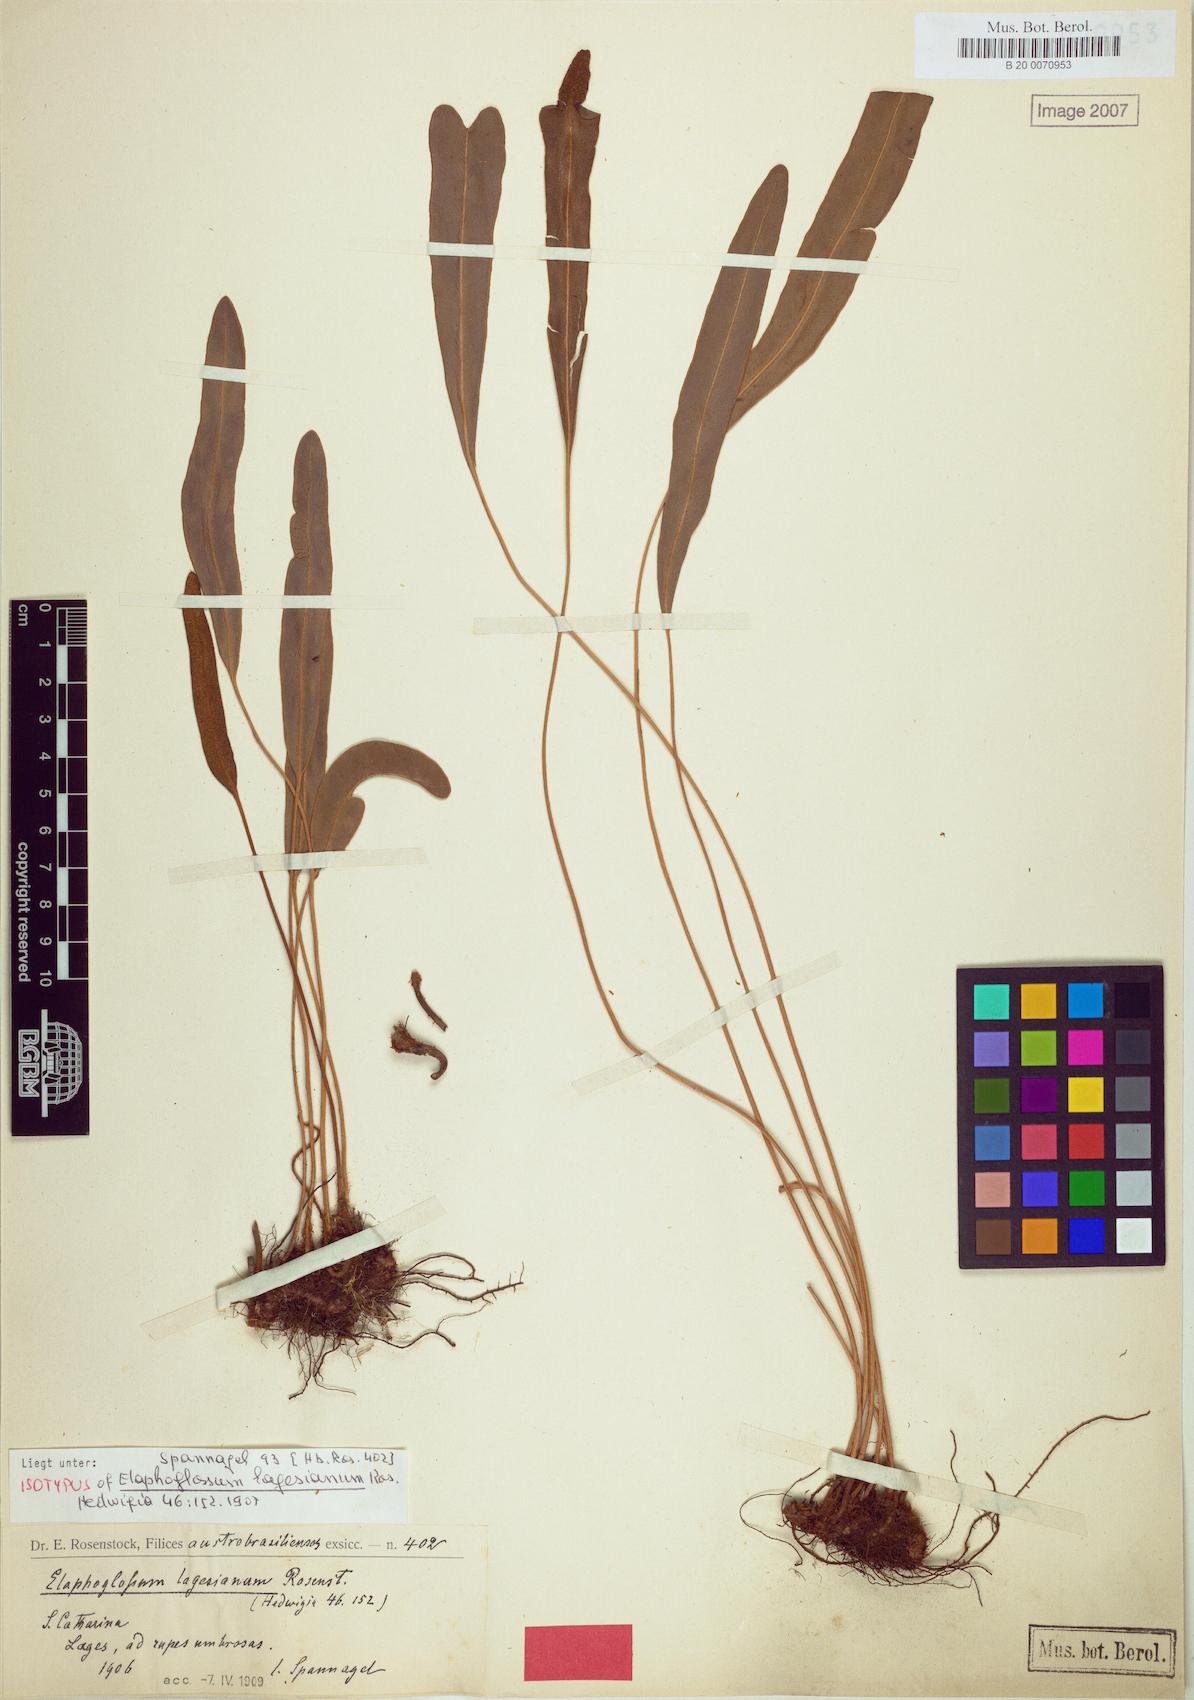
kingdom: Plantae
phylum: Tracheophyta
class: Polypodiopsida
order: Polypodiales
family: Dryopteridaceae
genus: Elaphoglossum
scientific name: Elaphoglossum lagesianum
